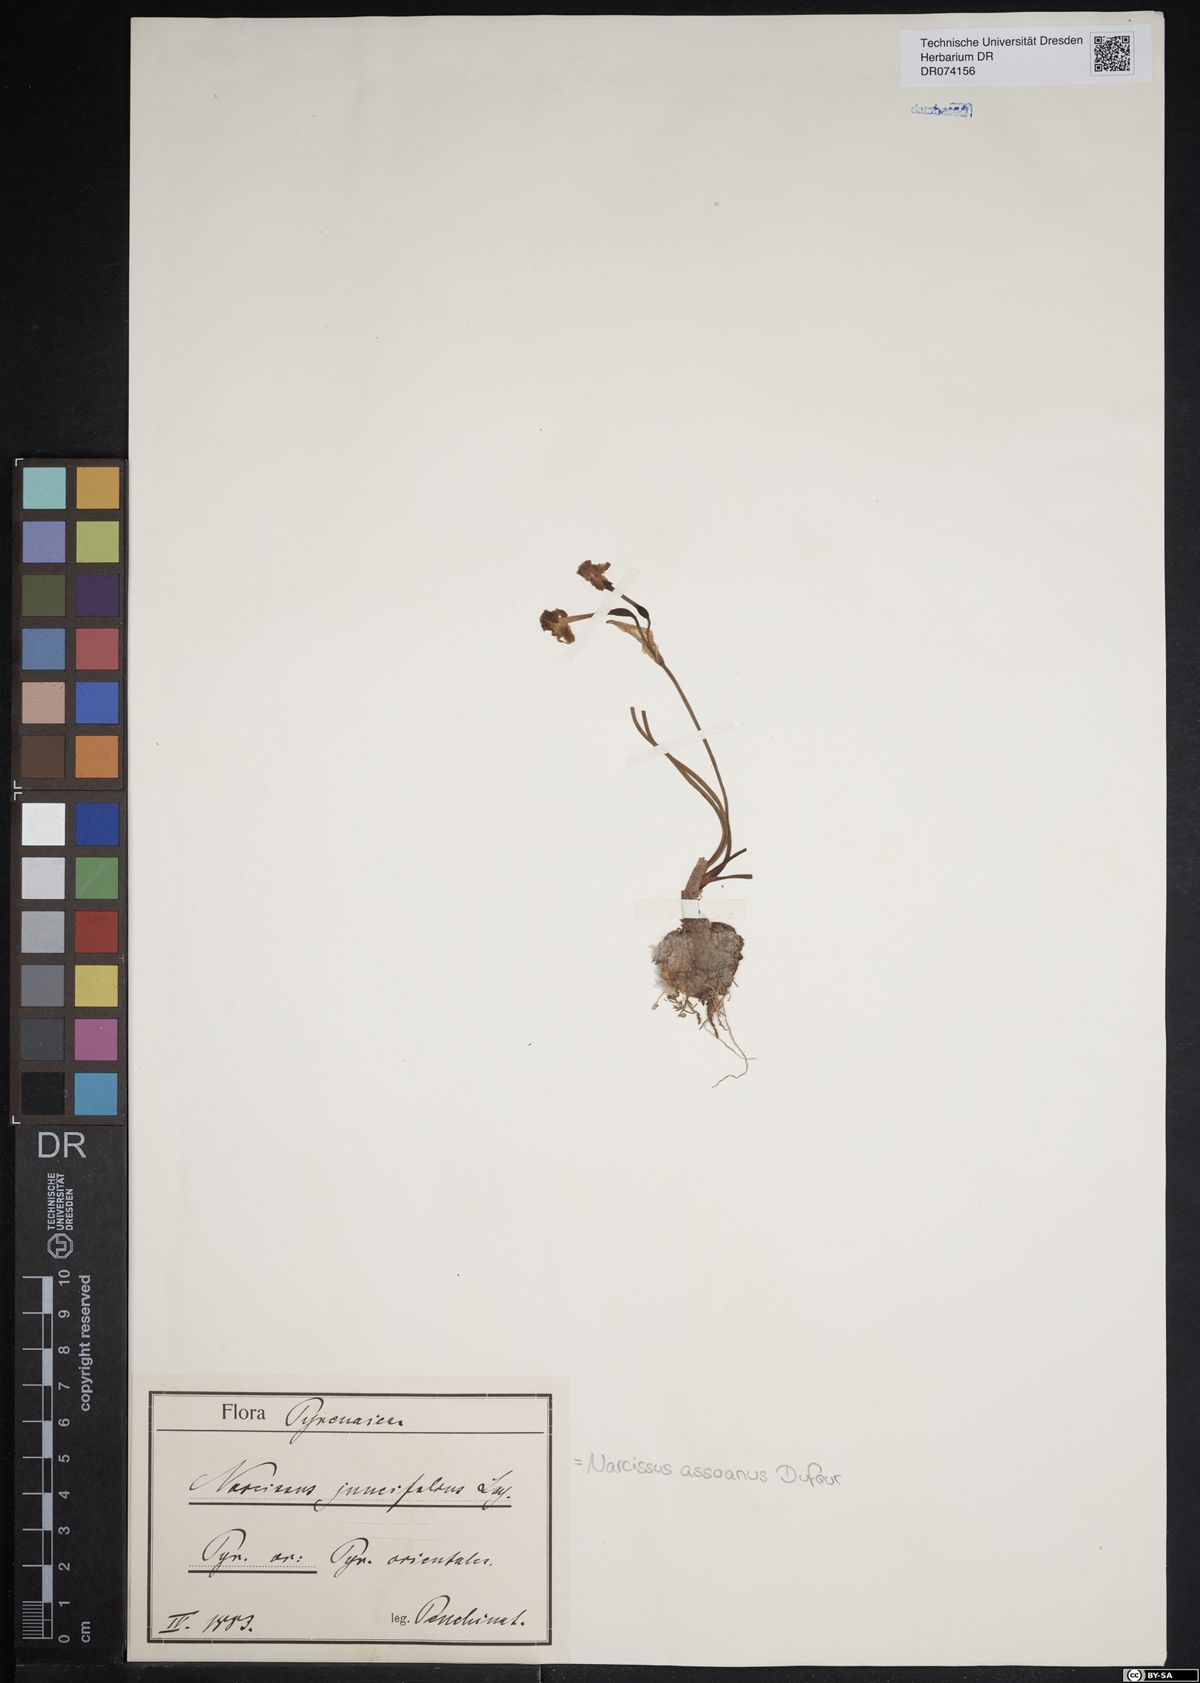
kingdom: Plantae
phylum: Tracheophyta
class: Liliopsida
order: Asparagales
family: Amaryllidaceae
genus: Narcissus
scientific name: Narcissus assoanus
